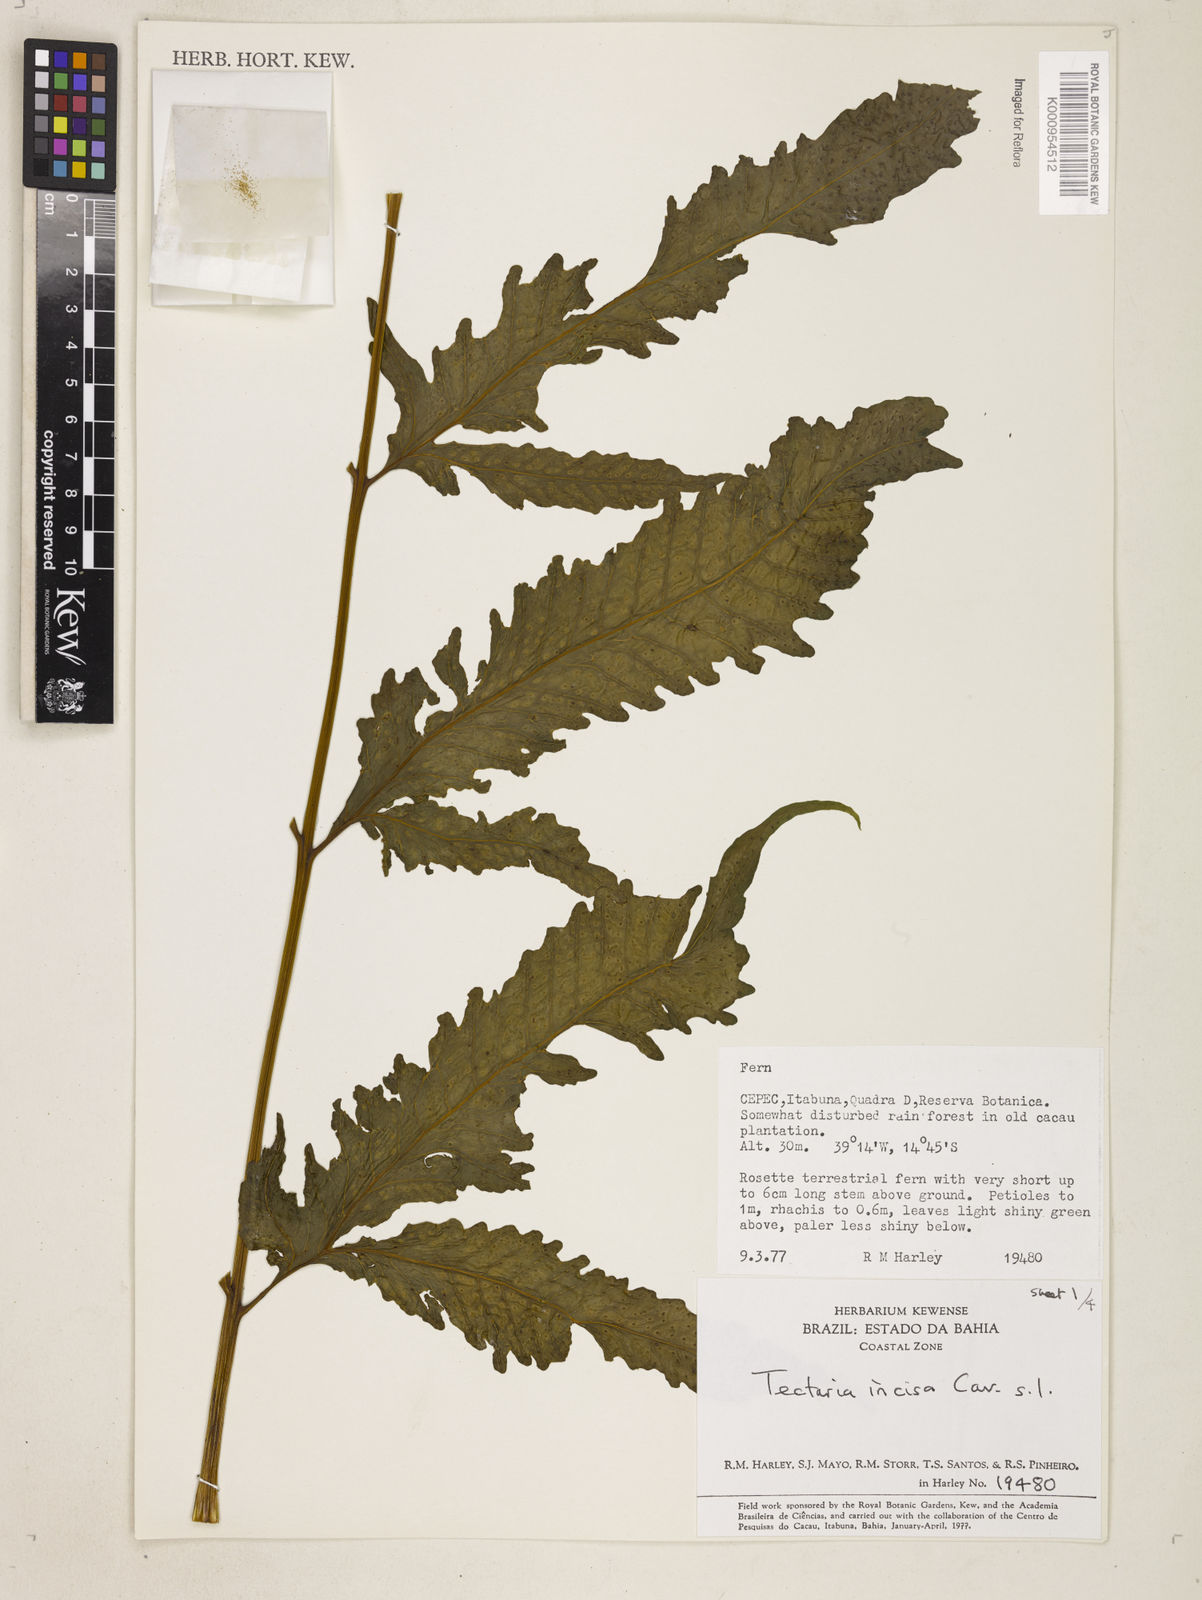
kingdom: Plantae
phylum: Tracheophyta
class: Polypodiopsida
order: Polypodiales
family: Tectariaceae
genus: Tectaria
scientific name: Tectaria incisa
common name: Incised halberd fern
